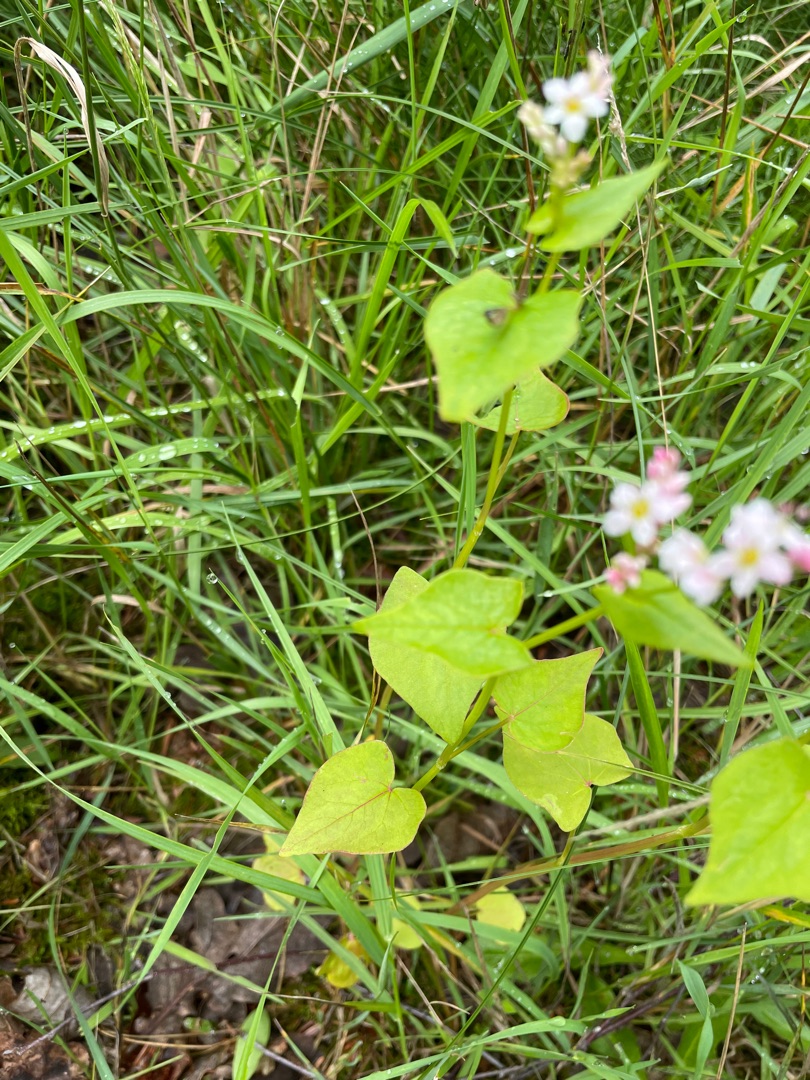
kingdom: Plantae
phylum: Tracheophyta
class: Magnoliopsida
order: Caryophyllales
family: Polygonaceae
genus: Fagopyrum
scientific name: Fagopyrum esculentum
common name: Almindelig boghvede
